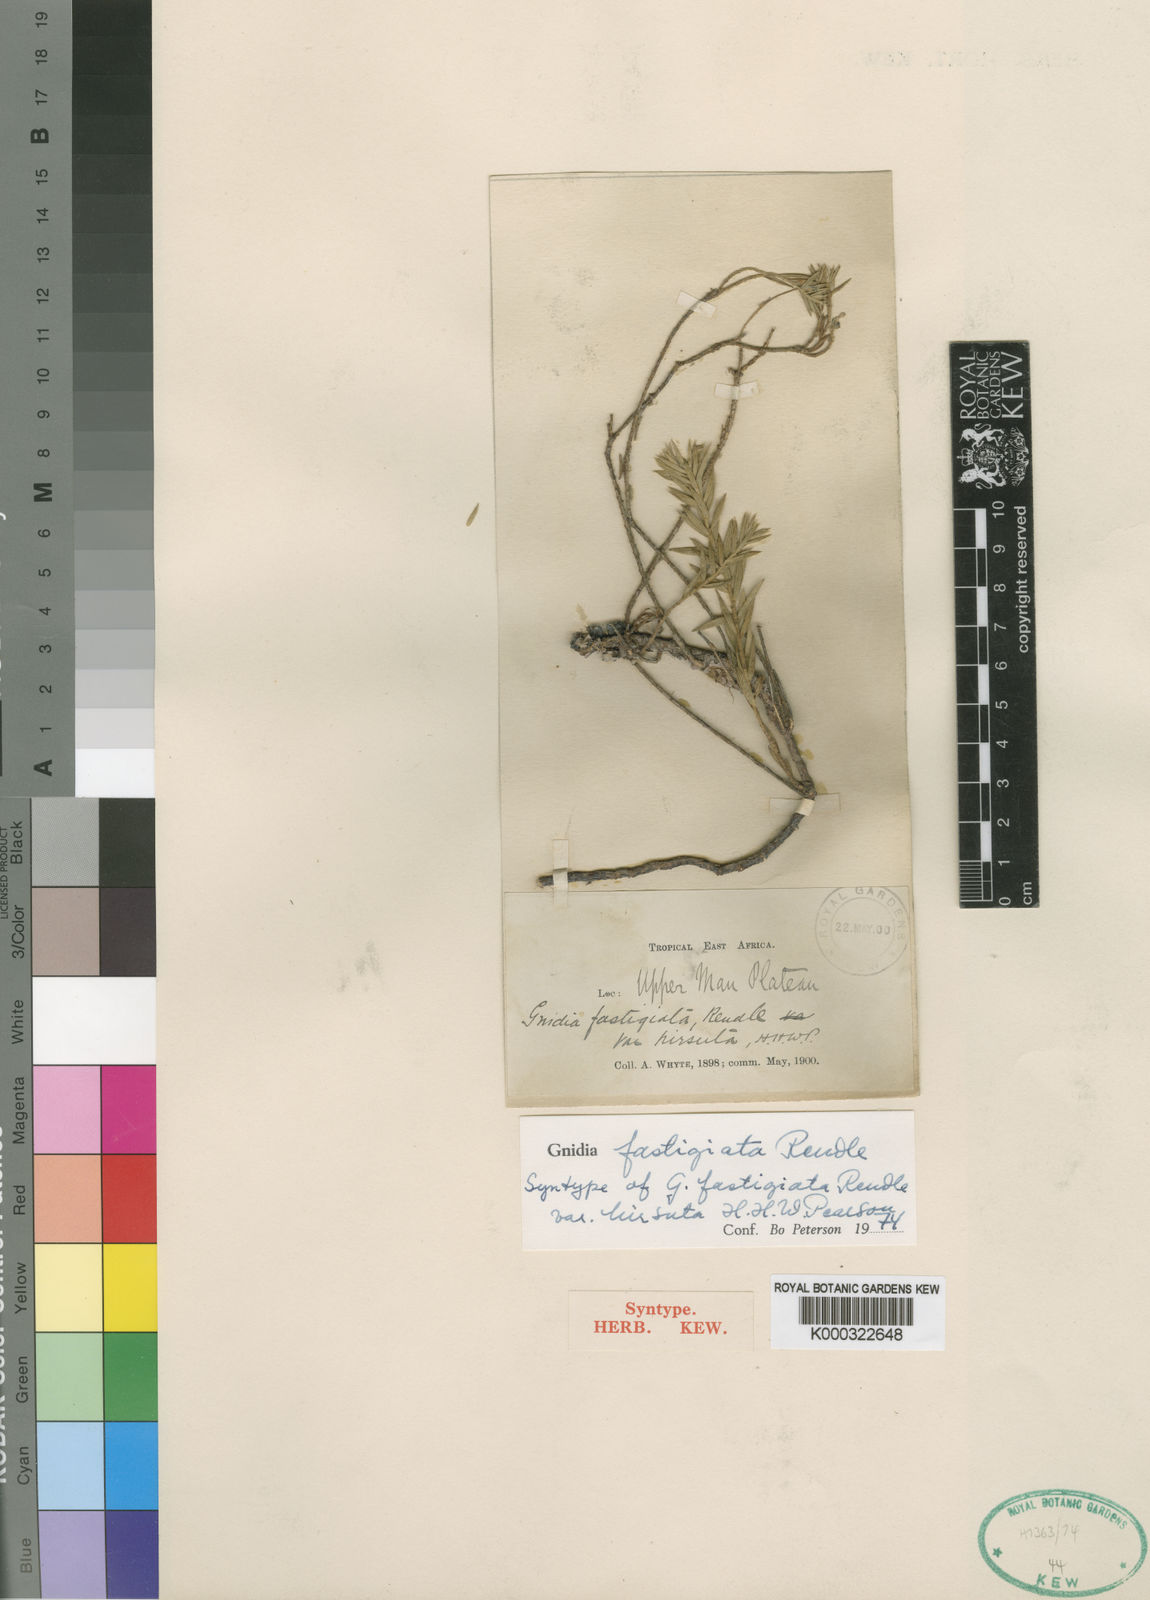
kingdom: Plantae
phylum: Tracheophyta
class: Magnoliopsida
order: Malvales
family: Thymelaeaceae
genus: Gnidia
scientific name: Gnidia fastigiata
